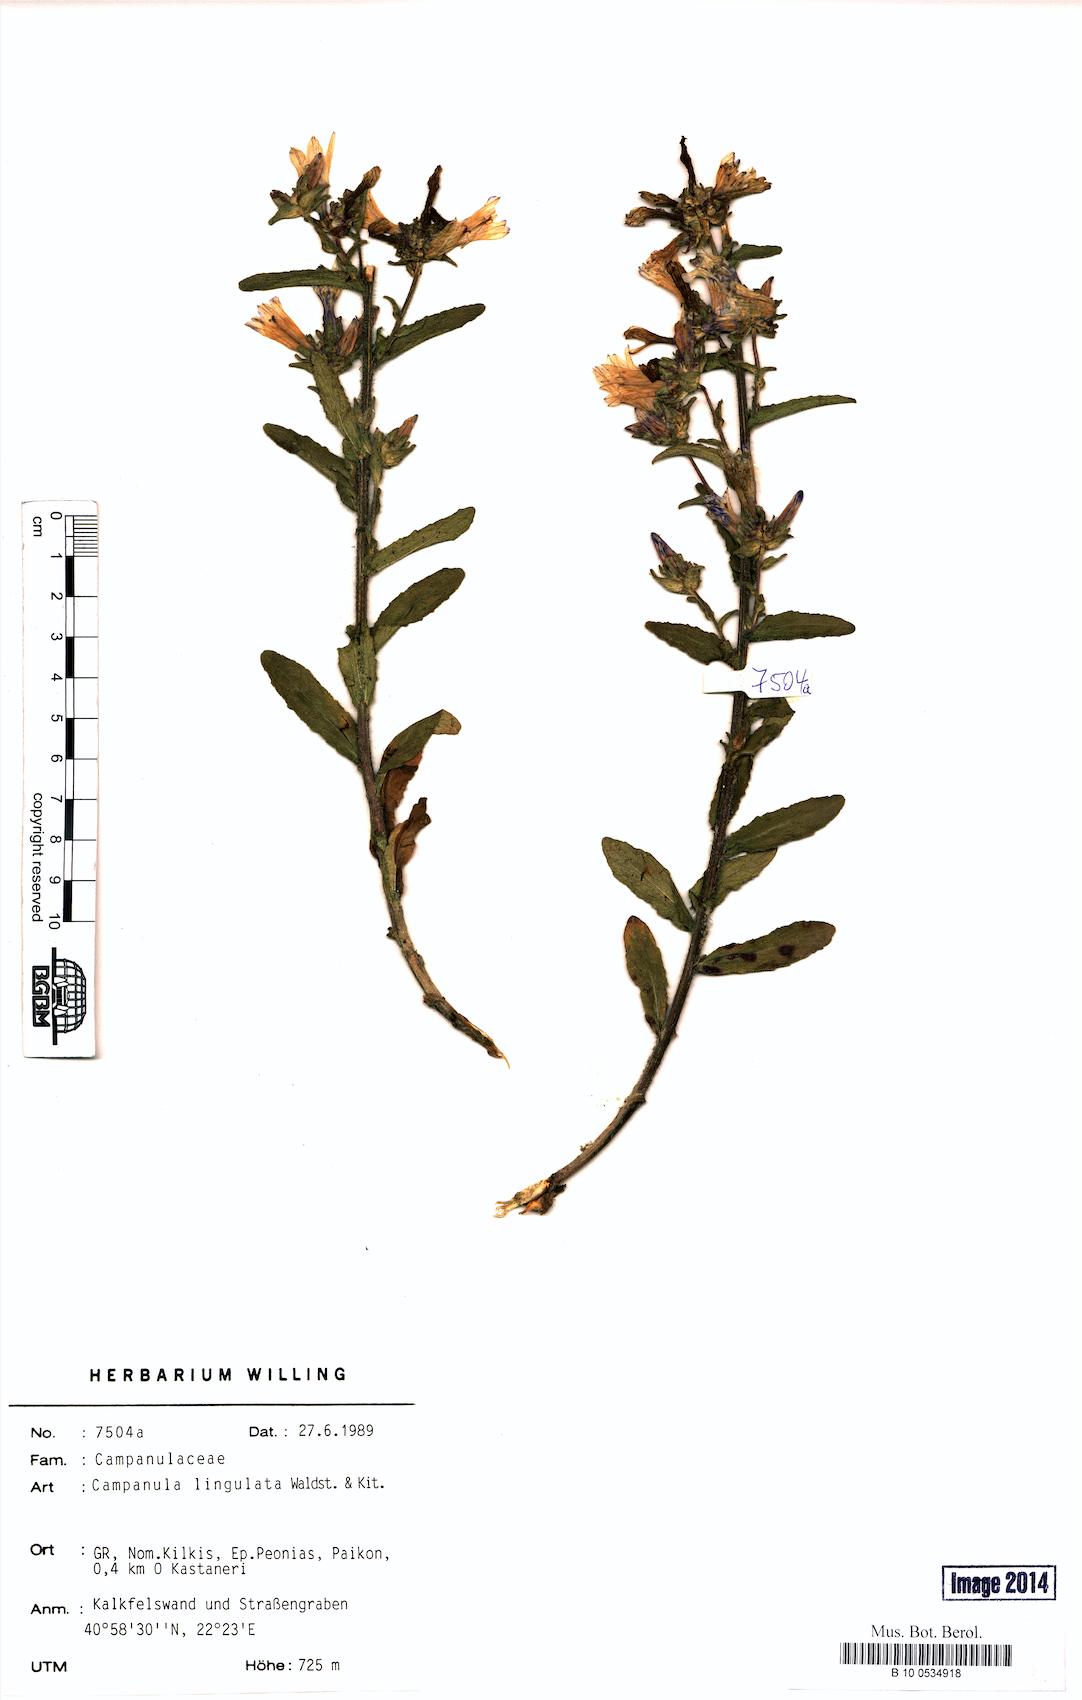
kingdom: Plantae
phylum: Tracheophyta
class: Magnoliopsida
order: Asterales
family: Campanulaceae
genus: Campanula
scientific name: Campanula lingulata
